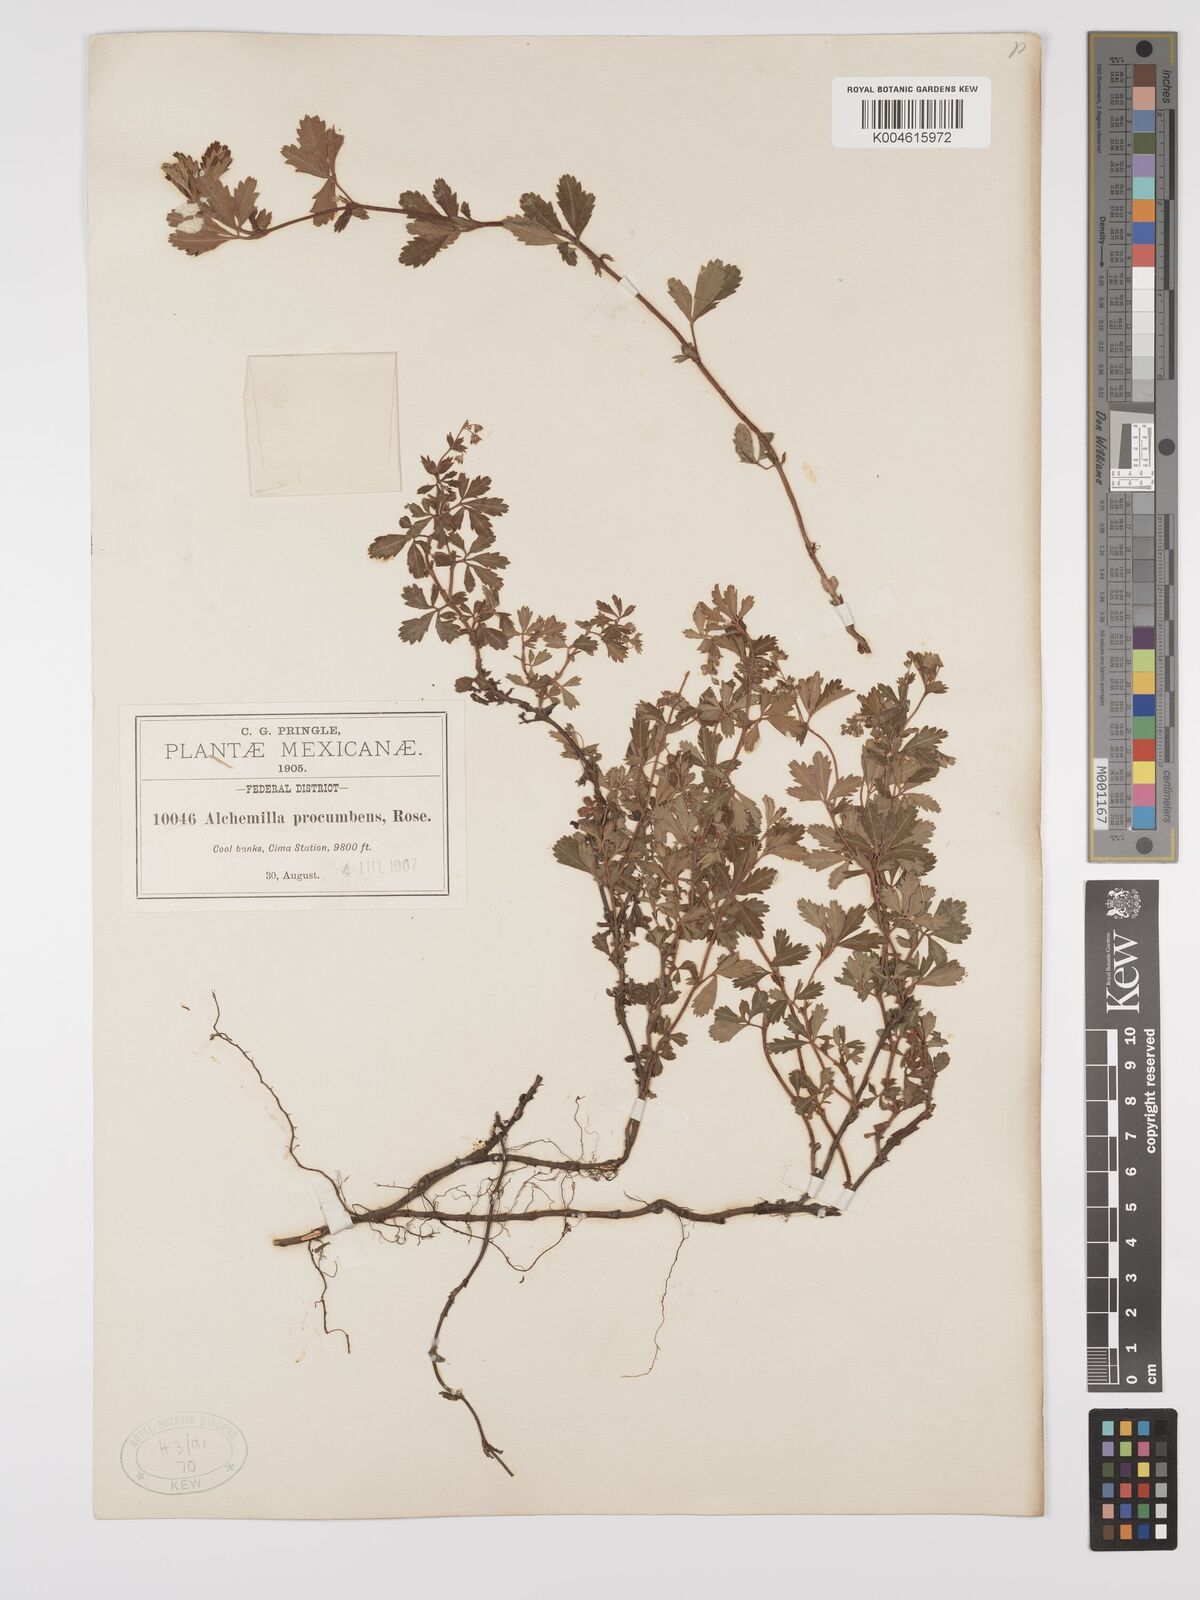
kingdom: Plantae
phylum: Tracheophyta
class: Magnoliopsida
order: Rosales
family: Rosaceae
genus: Lachemilla
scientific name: Lachemilla procumbens
